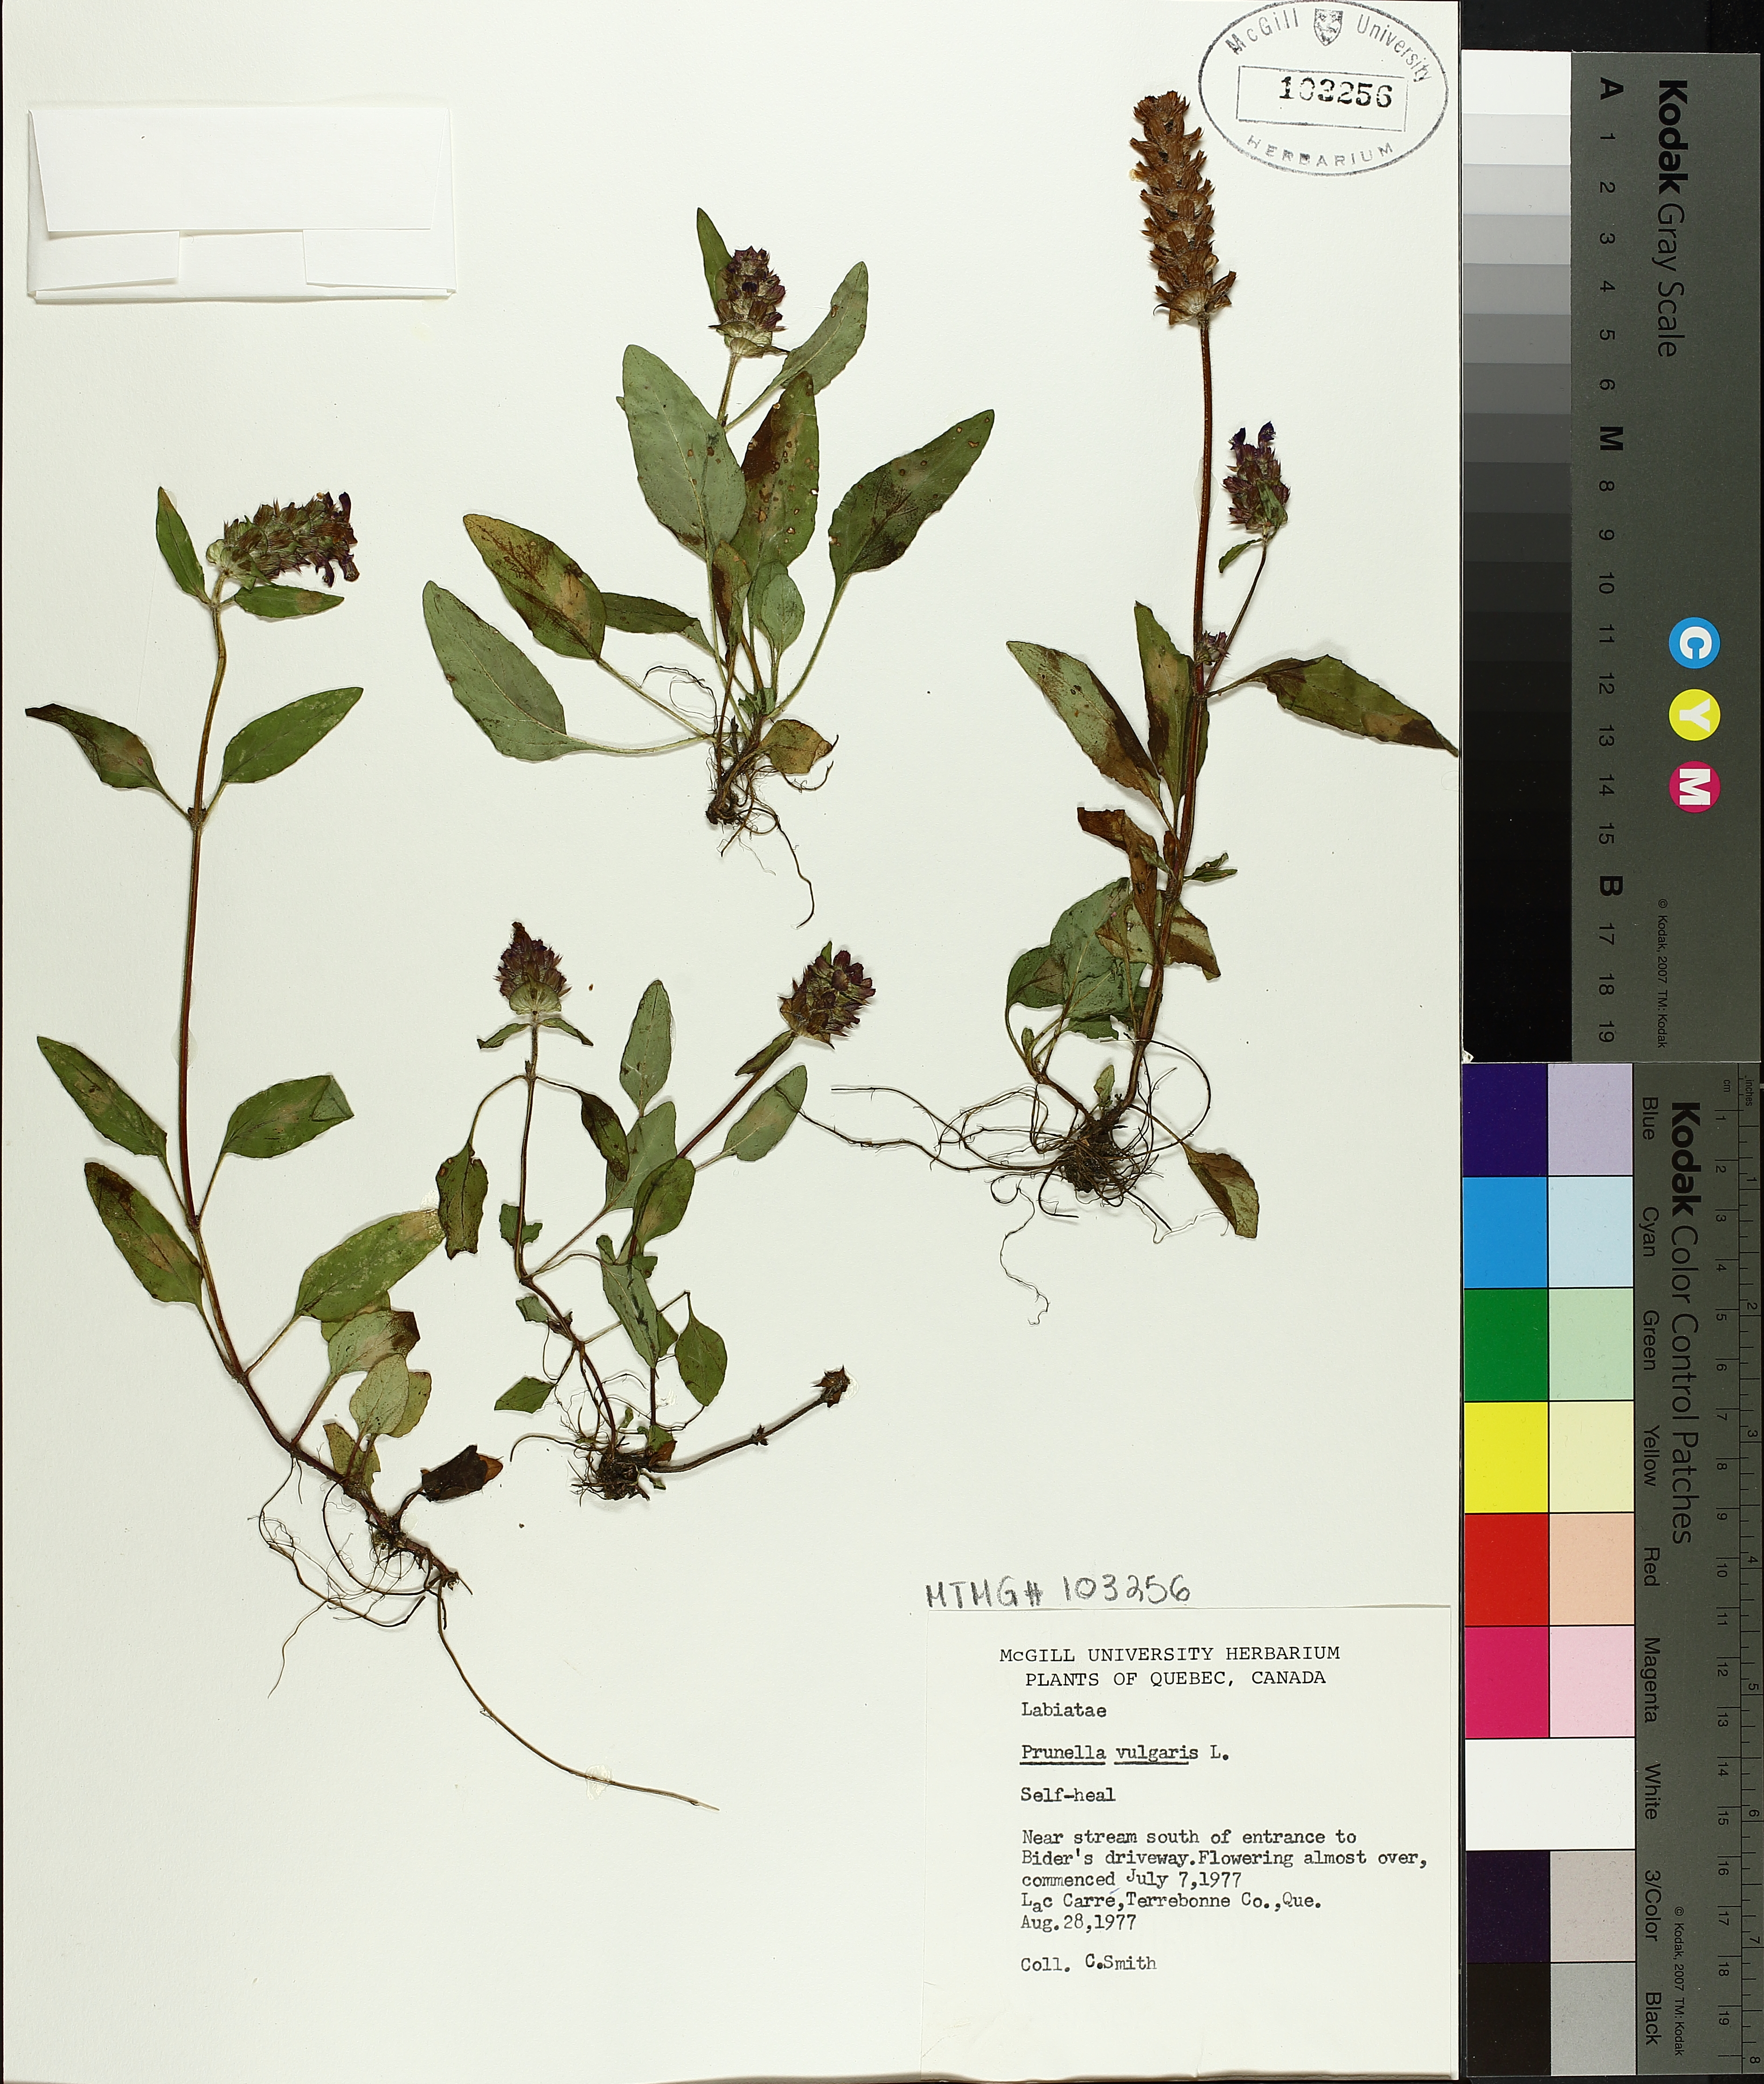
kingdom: Plantae
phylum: Tracheophyta
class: Magnoliopsida
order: Lamiales
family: Lamiaceae
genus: Prunella
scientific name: Prunella vulgaris
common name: Heal-all
